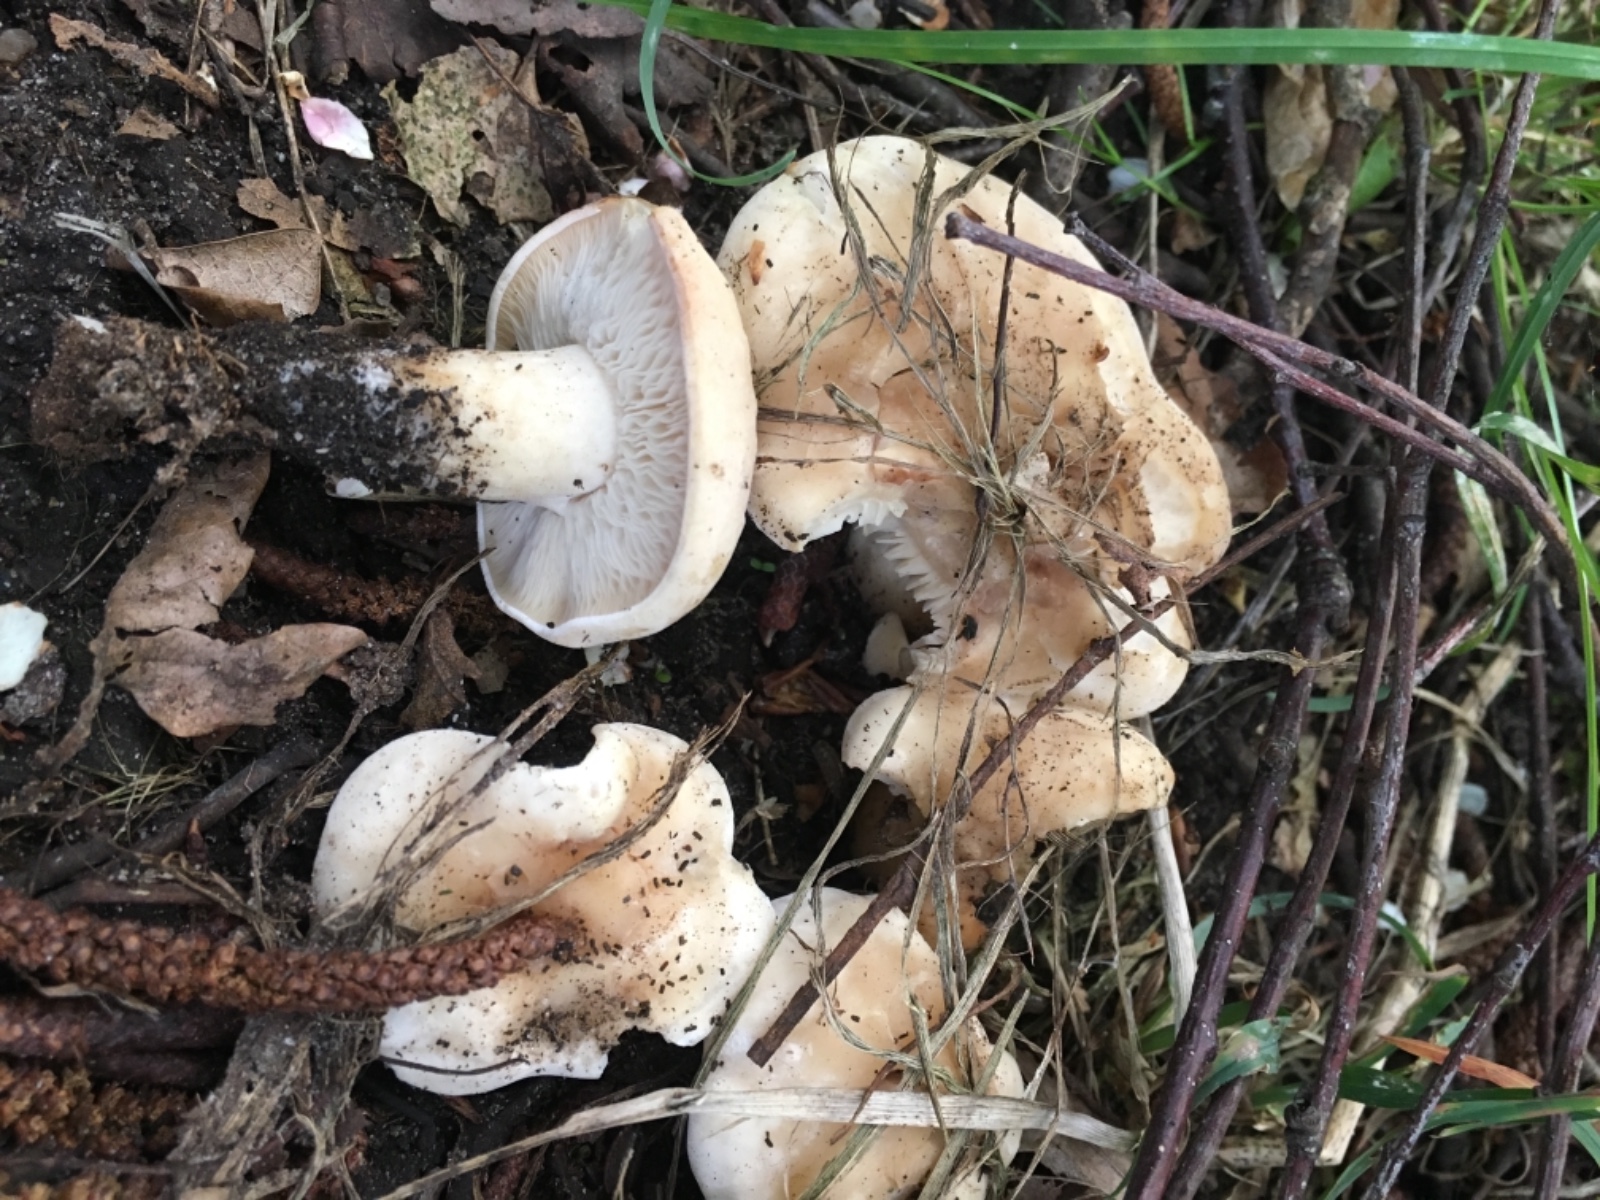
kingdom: Fungi
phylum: Basidiomycota
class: Agaricomycetes
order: Agaricales
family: Lyophyllaceae
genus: Calocybe
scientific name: Calocybe gambosa
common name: vårmusseron
